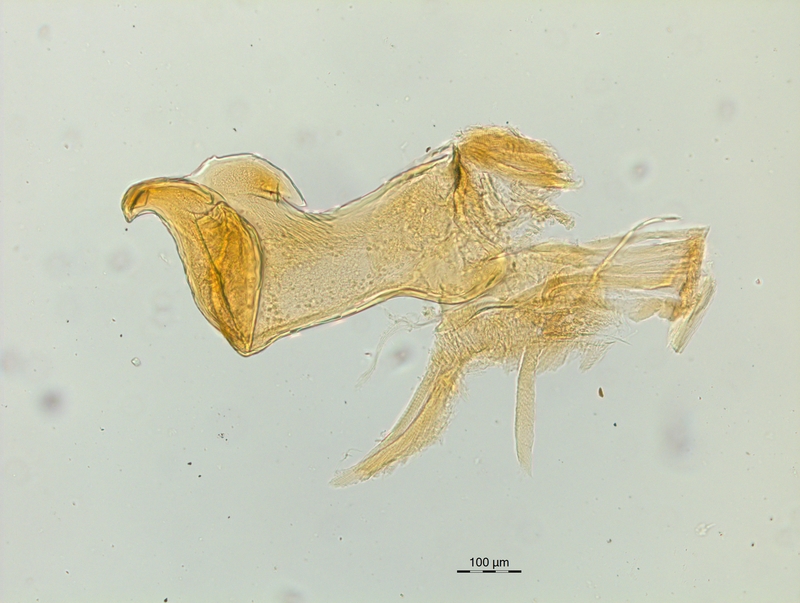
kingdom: Animalia
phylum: Arthropoda
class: Diplopoda
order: Chordeumatida
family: Craspedosomatidae
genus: Craspedosoma
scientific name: Craspedosoma rawlinsii
